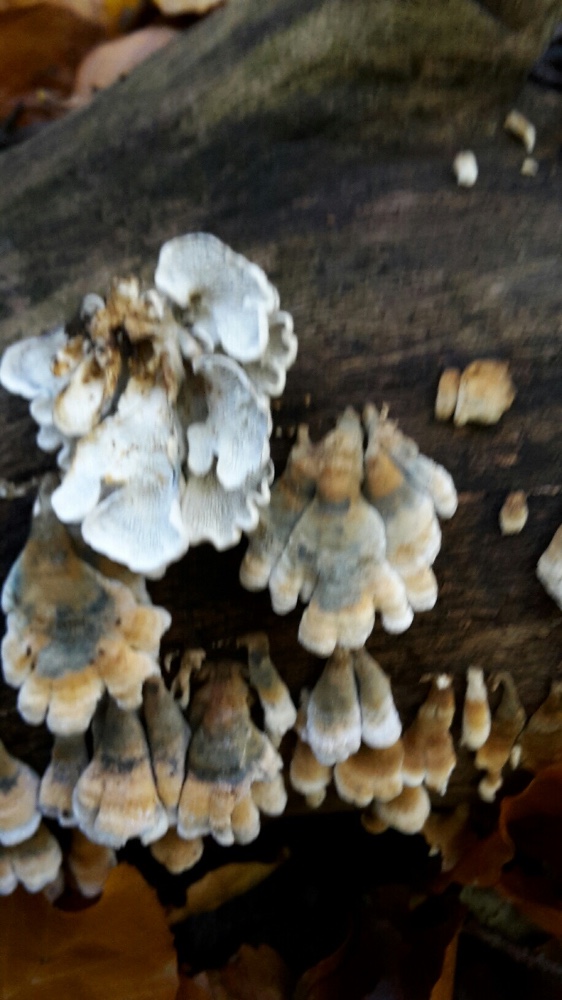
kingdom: Fungi
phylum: Basidiomycota
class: Agaricomycetes
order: Amylocorticiales
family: Amylocorticiaceae
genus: Plicaturopsis
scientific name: Plicaturopsis crispa
